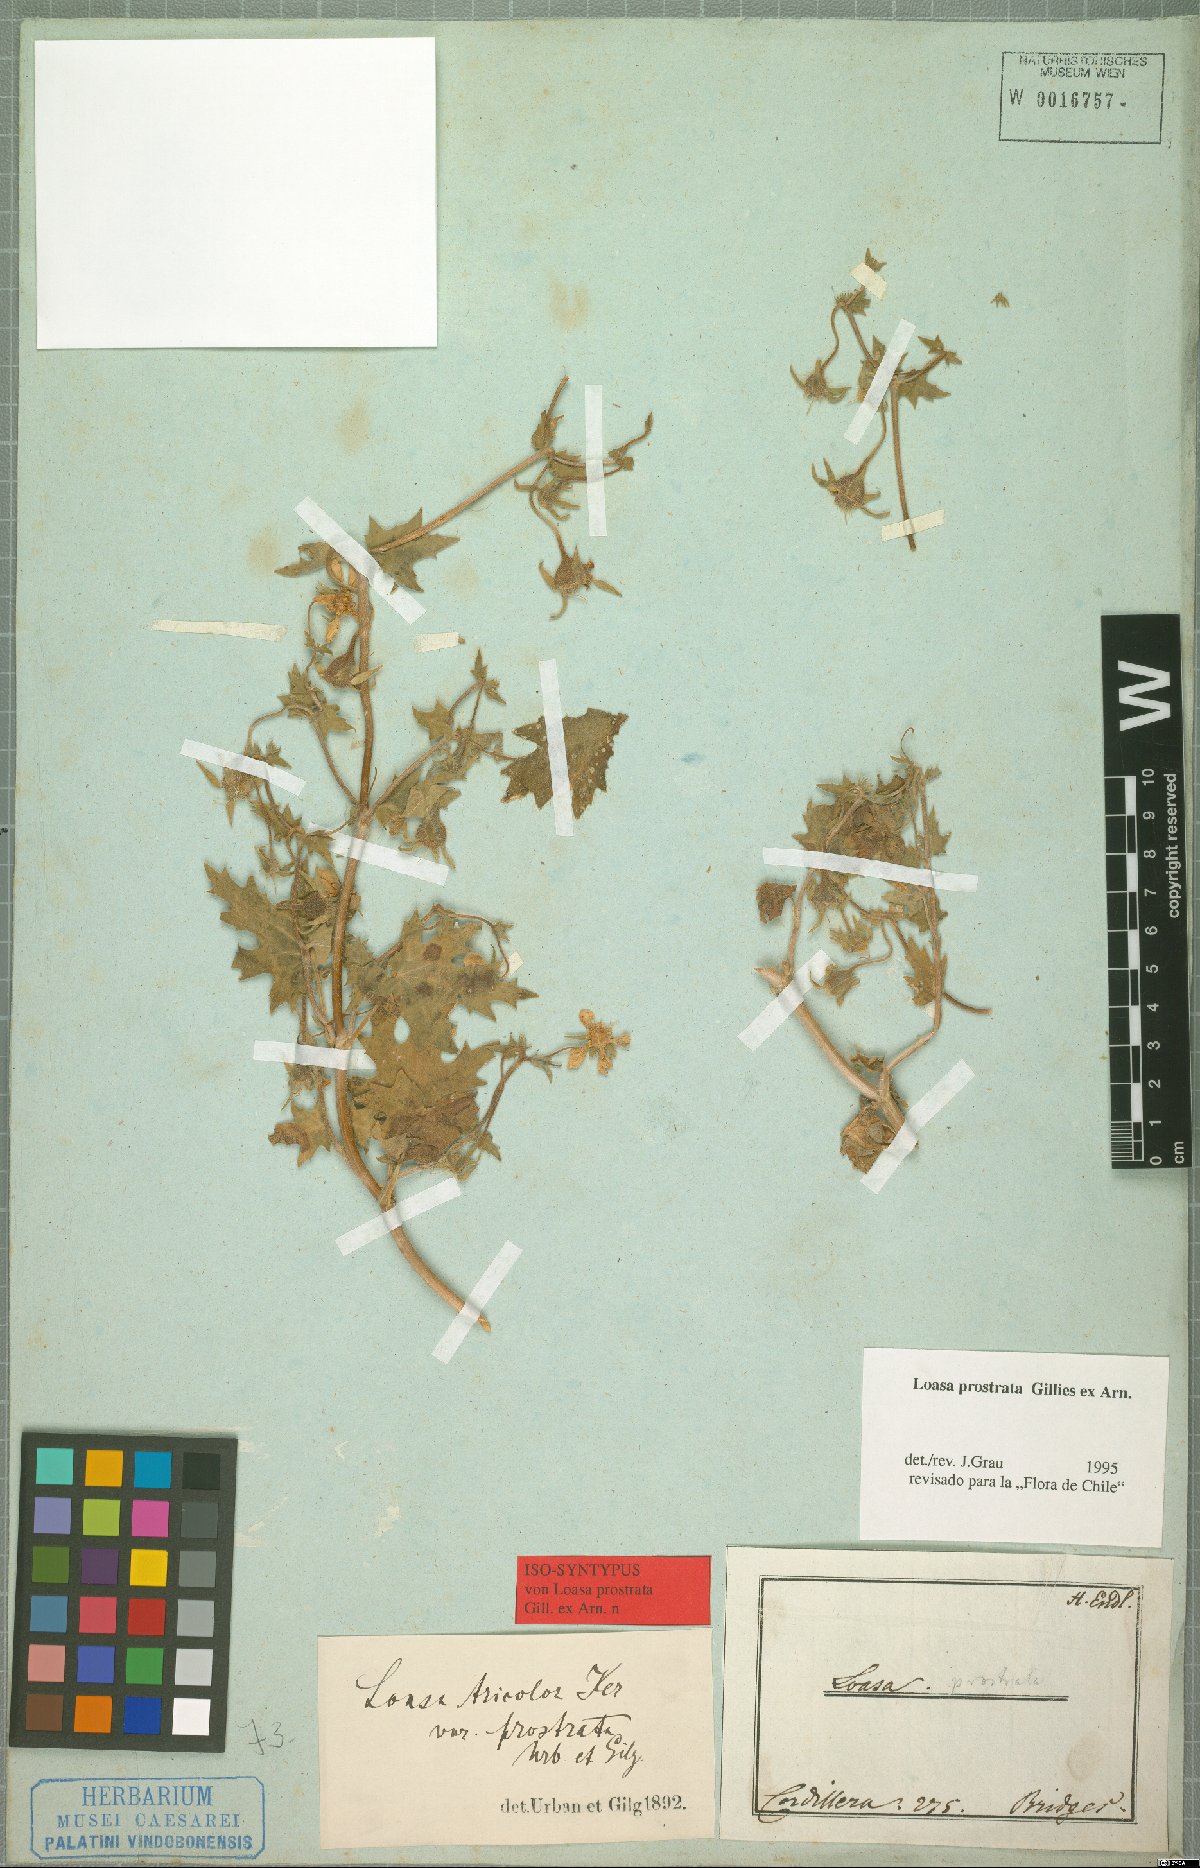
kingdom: Plantae
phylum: Tracheophyta
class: Magnoliopsida
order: Cornales
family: Loasaceae
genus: Loasa
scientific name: Loasa prostrata
